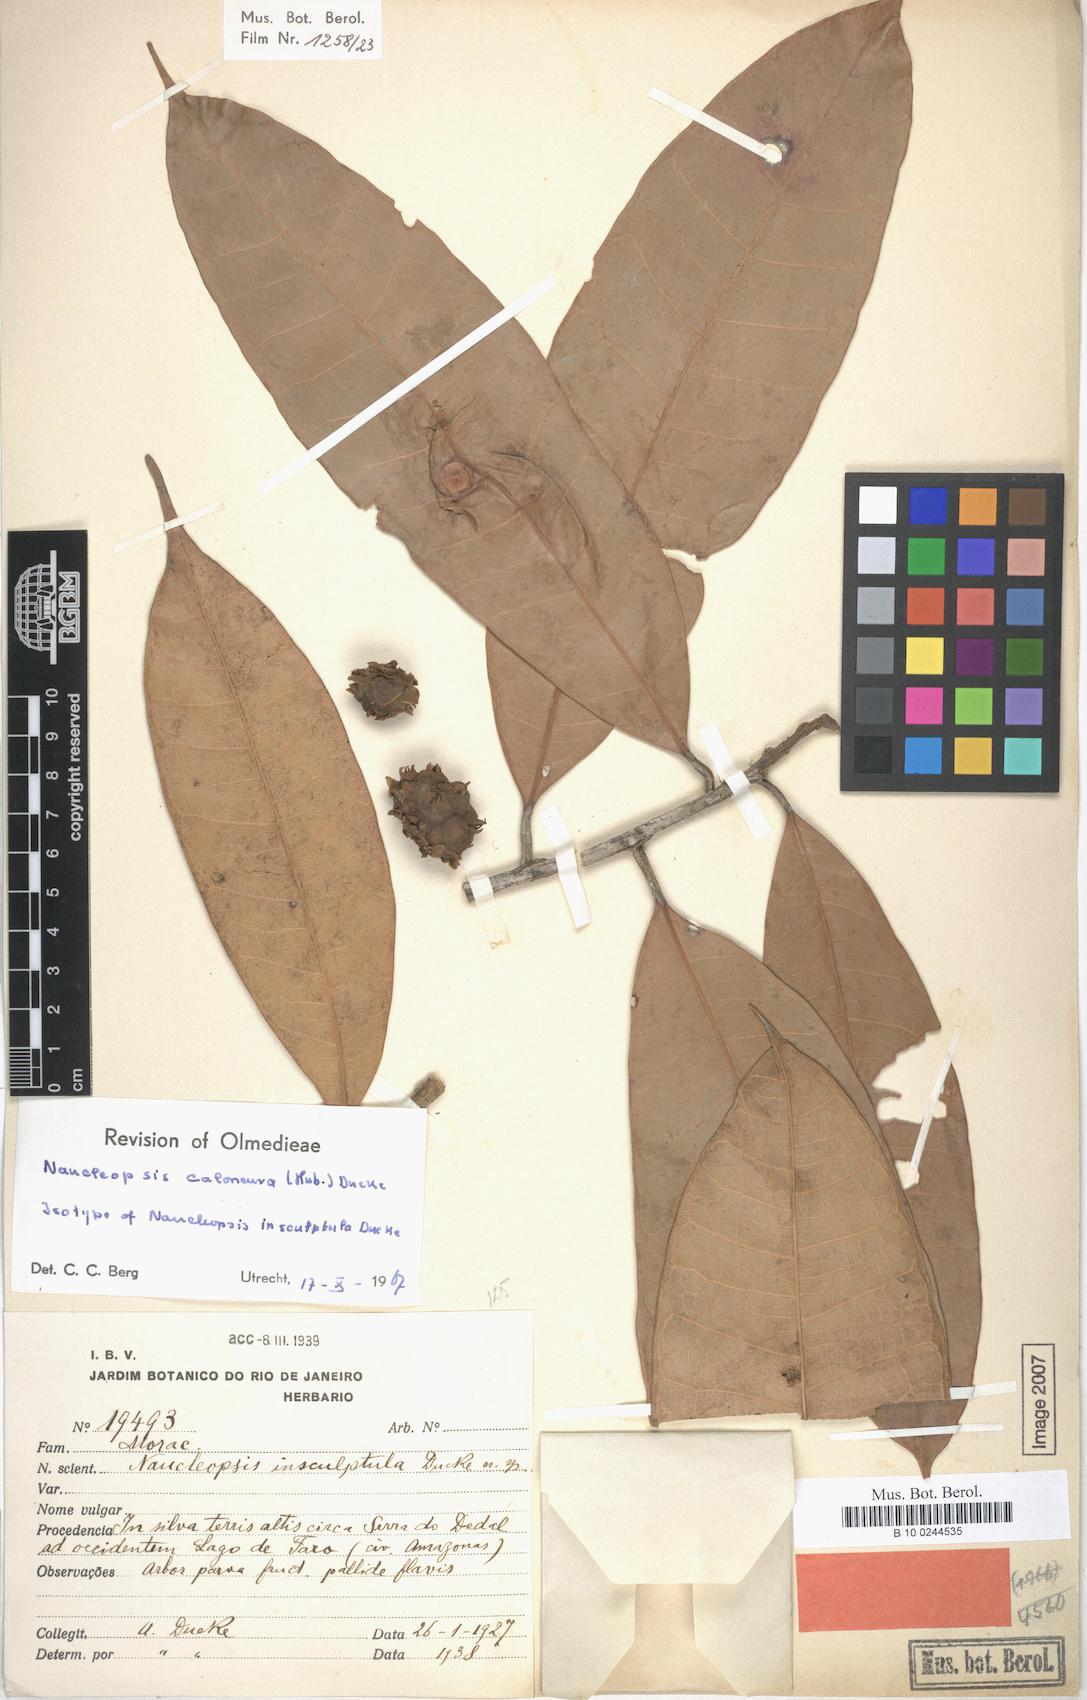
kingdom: Plantae
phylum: Tracheophyta
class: Magnoliopsida
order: Rosales
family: Moraceae
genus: Naucleopsis
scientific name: Naucleopsis caloneura
